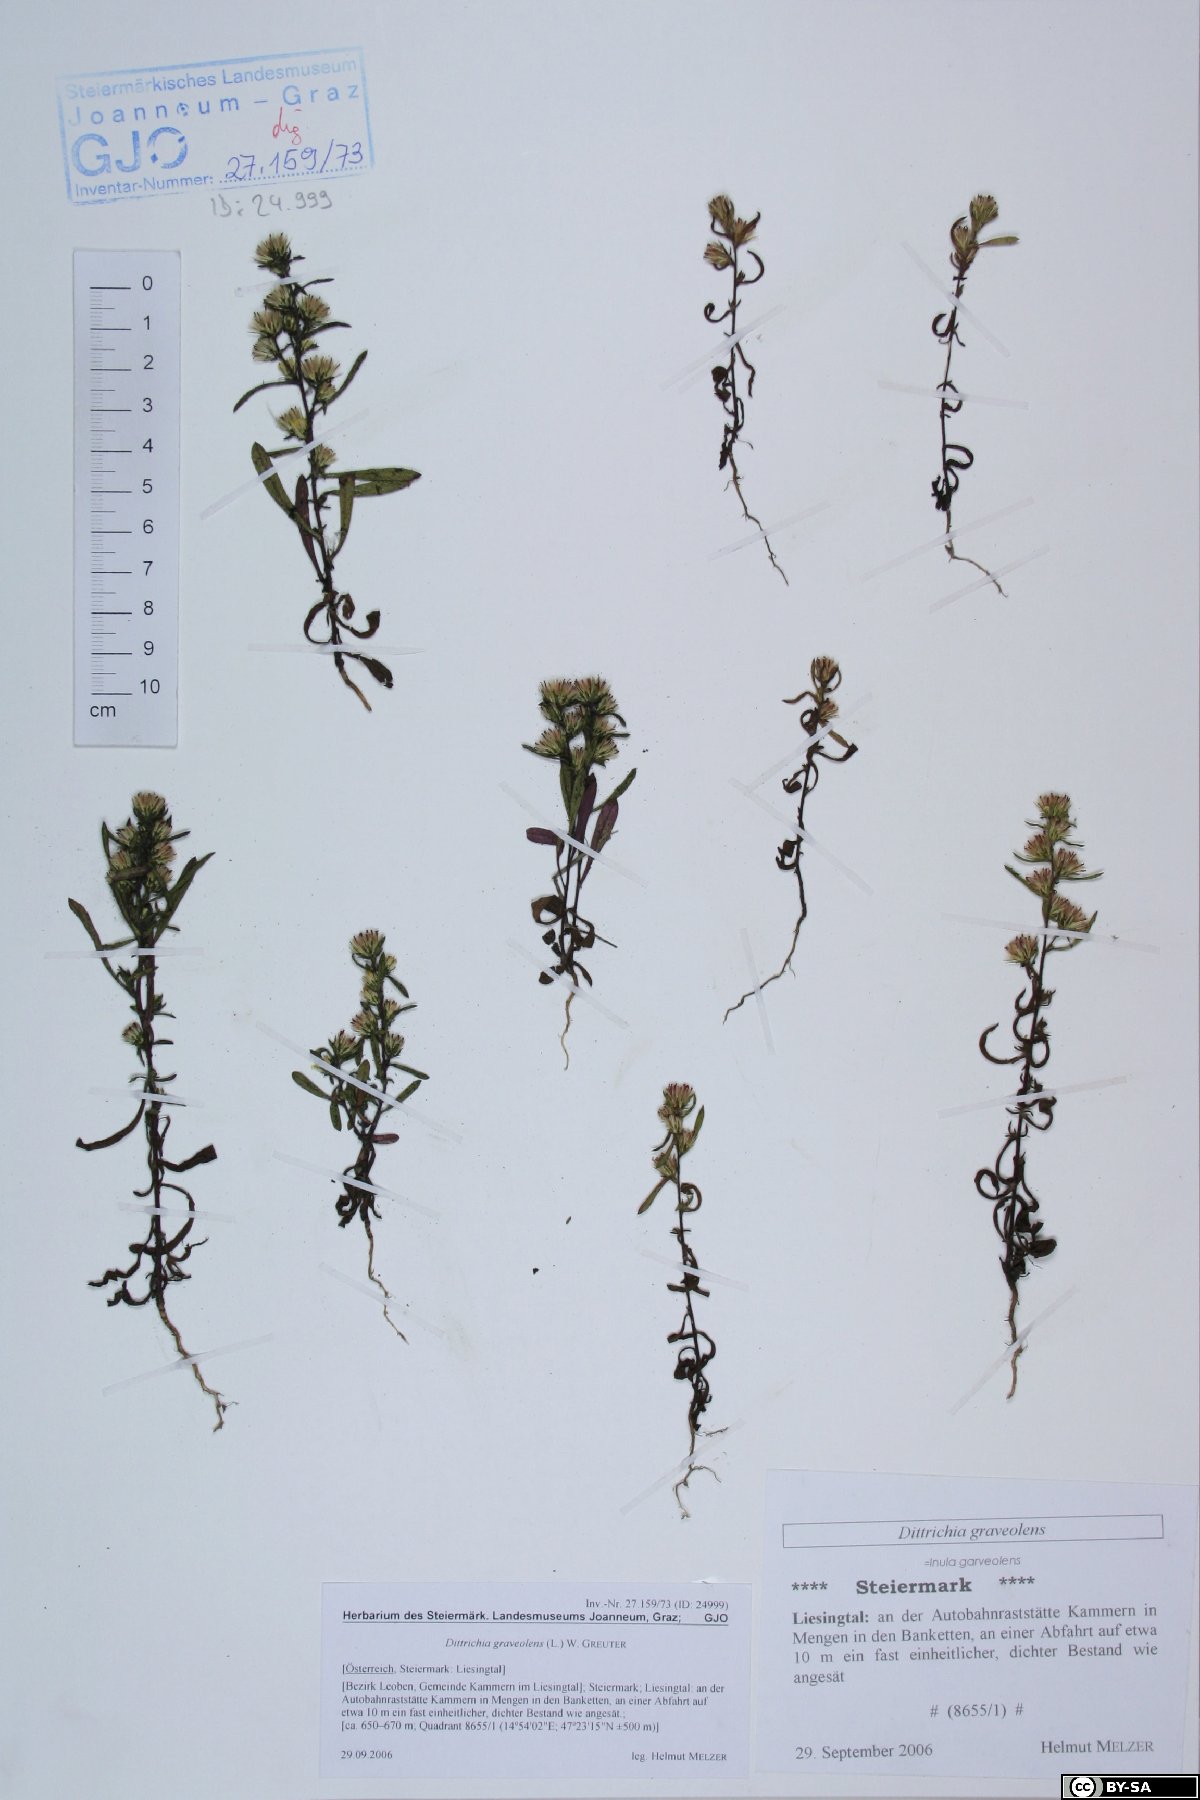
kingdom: Plantae
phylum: Tracheophyta
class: Magnoliopsida
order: Asterales
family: Asteraceae
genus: Dittrichia
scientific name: Dittrichia graveolens
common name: Stinking fleabane
